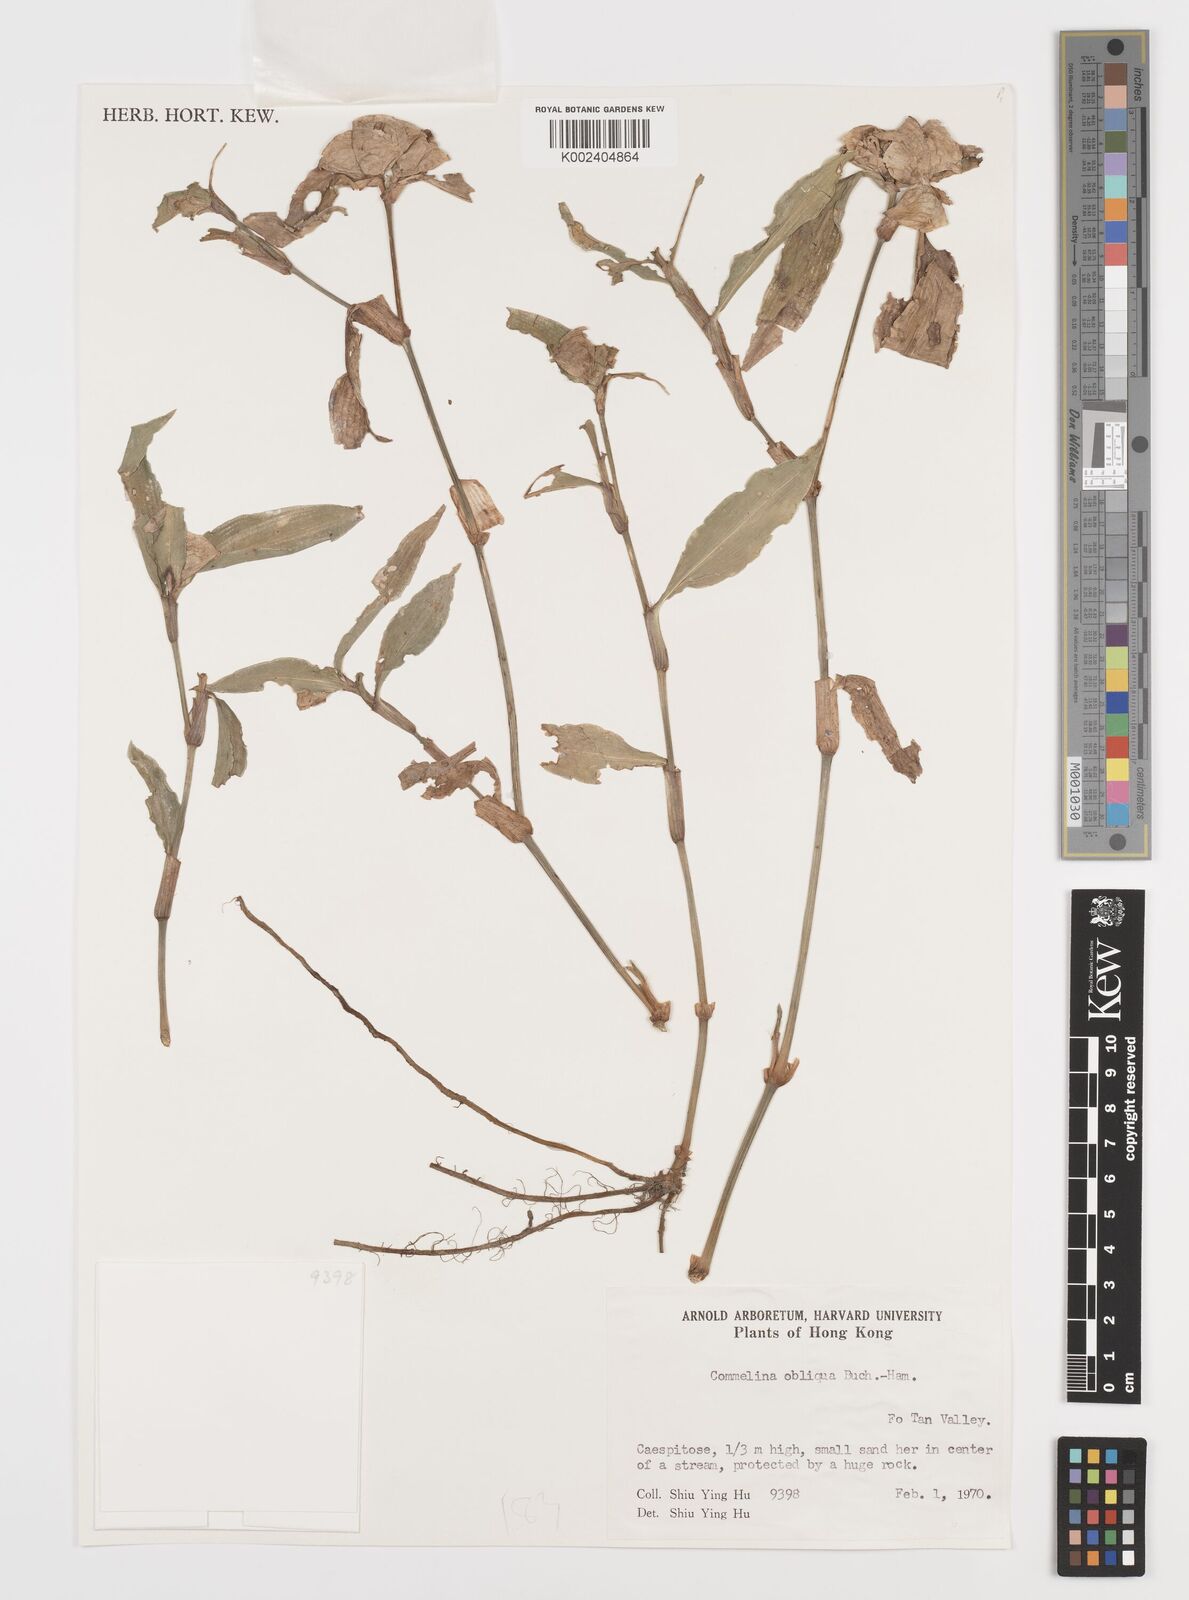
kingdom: Plantae
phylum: Tracheophyta
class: Liliopsida
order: Commelinales
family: Commelinaceae
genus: Commelina
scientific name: Commelina obliqua
